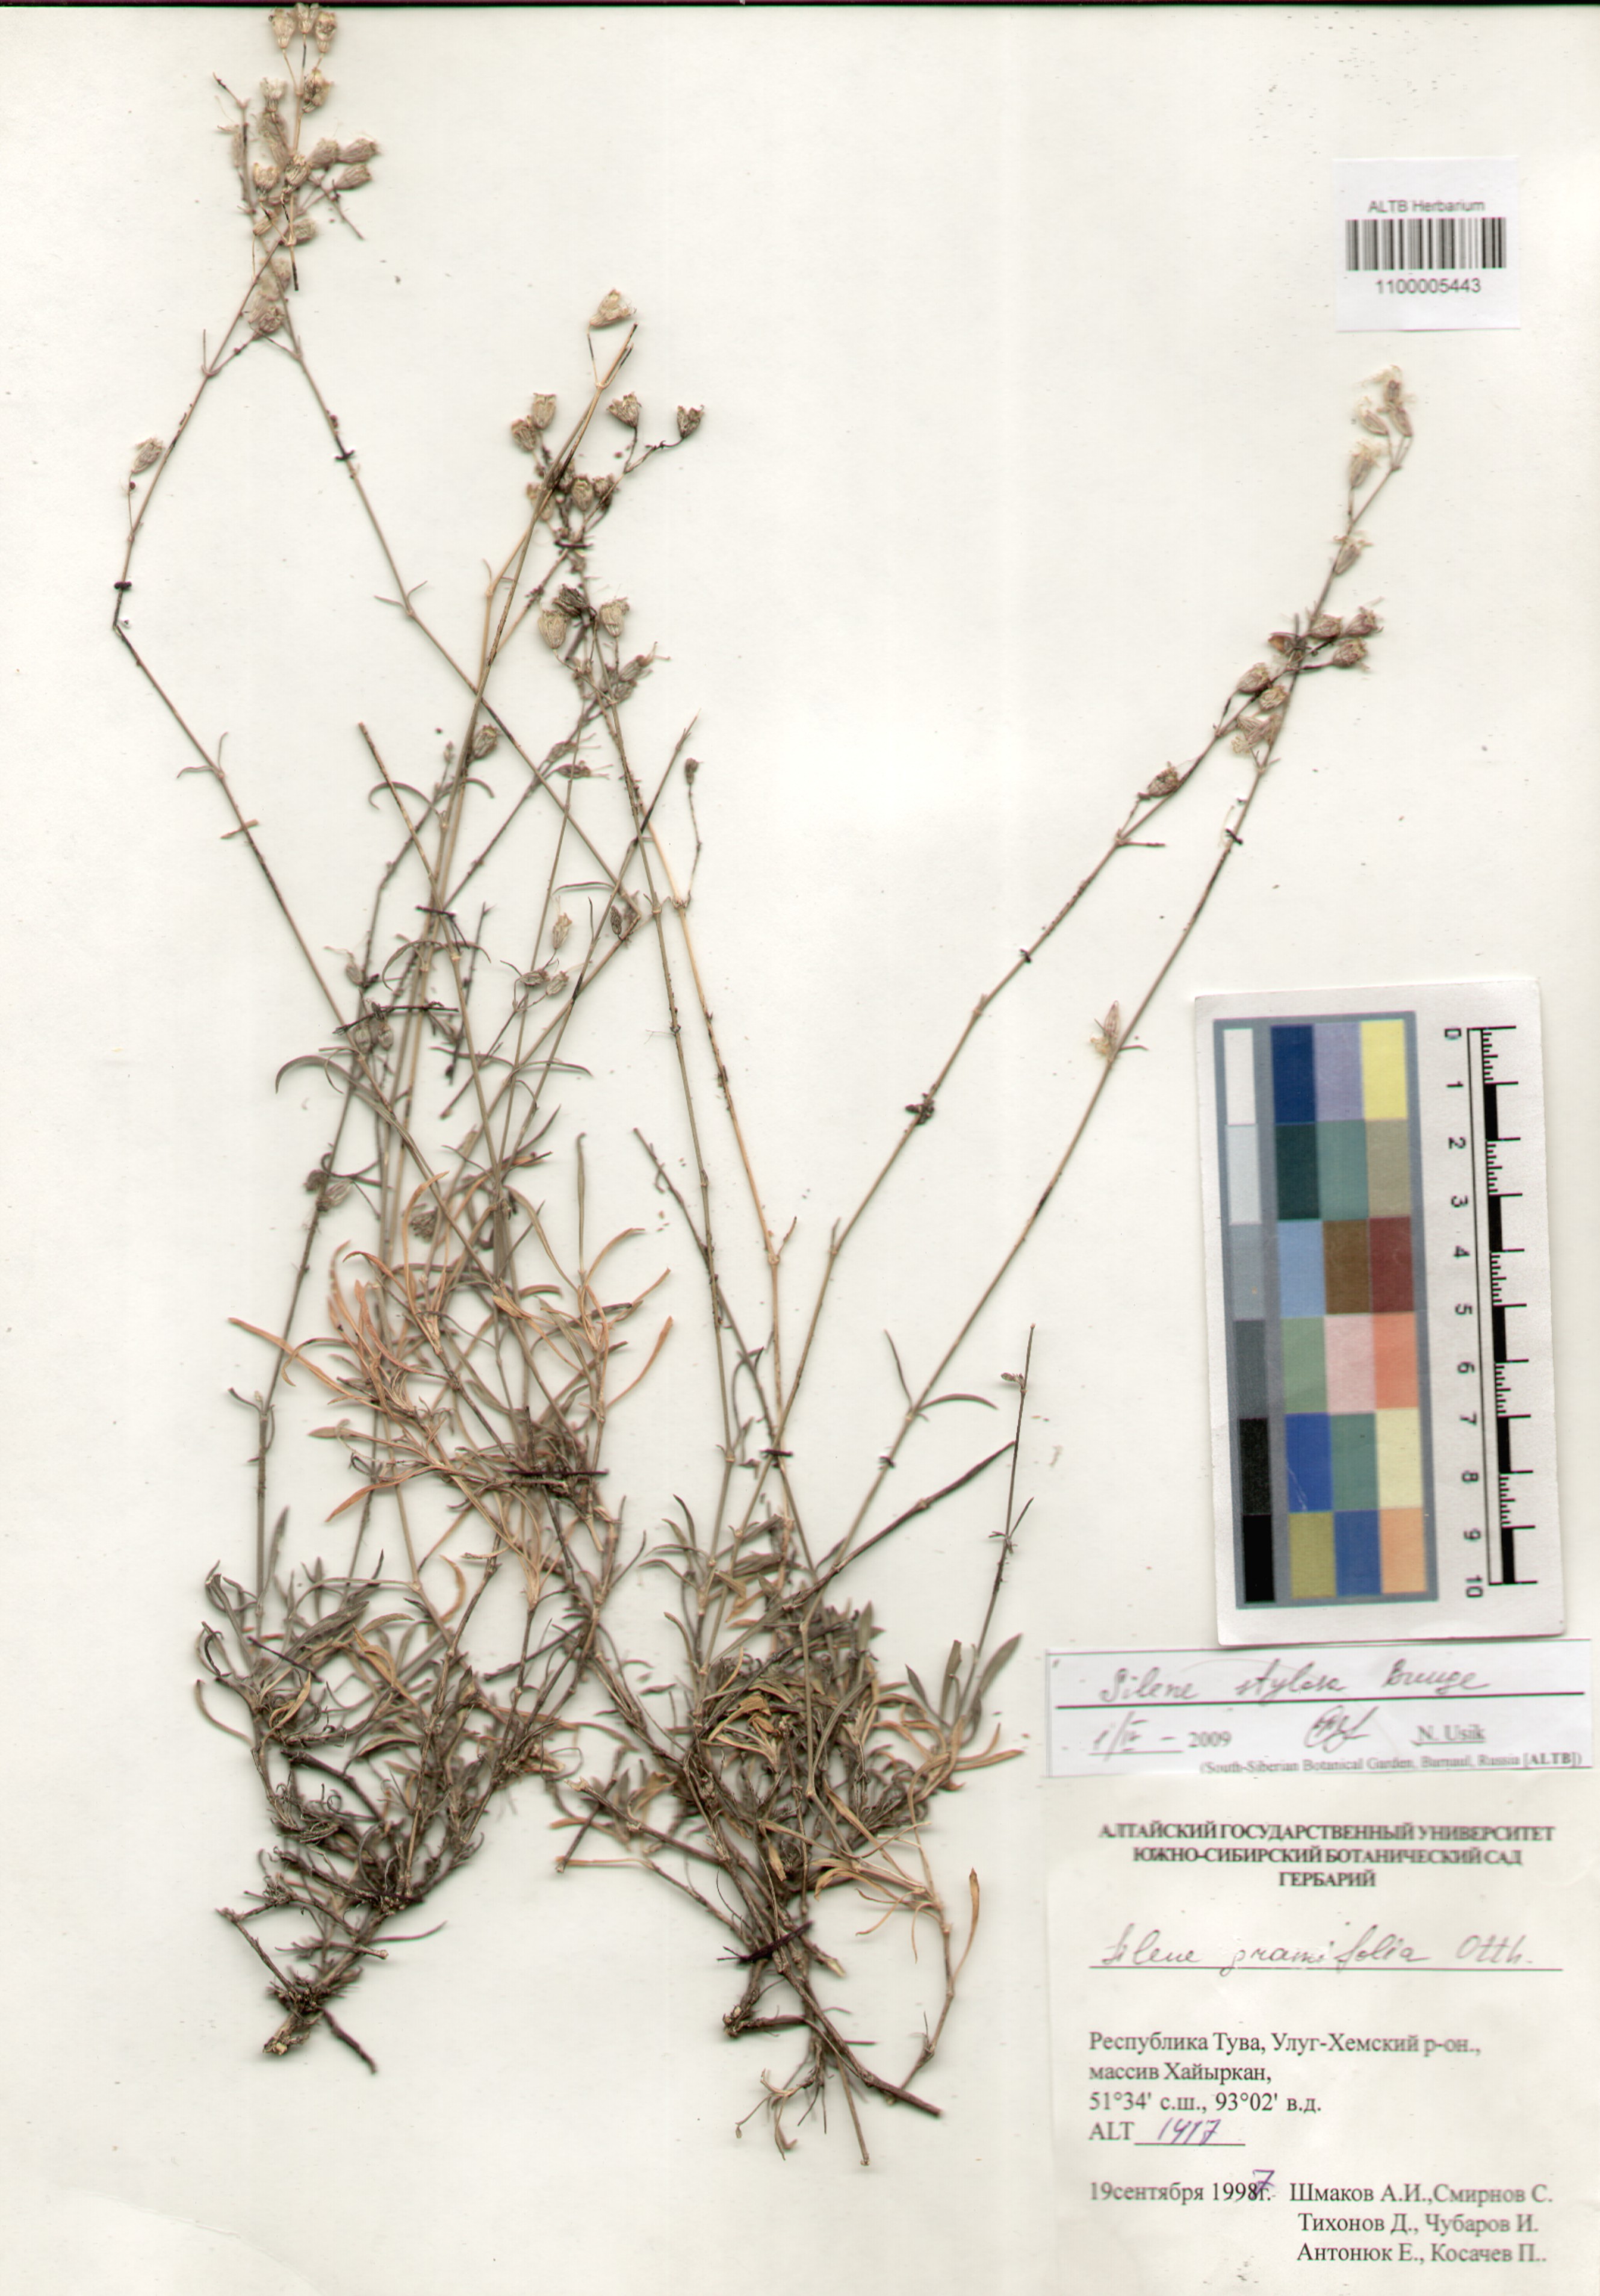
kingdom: Plantae
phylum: Tracheophyta
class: Magnoliopsida
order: Caryophyllales
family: Caryophyllaceae
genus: Silene
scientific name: Silene graminifolia
